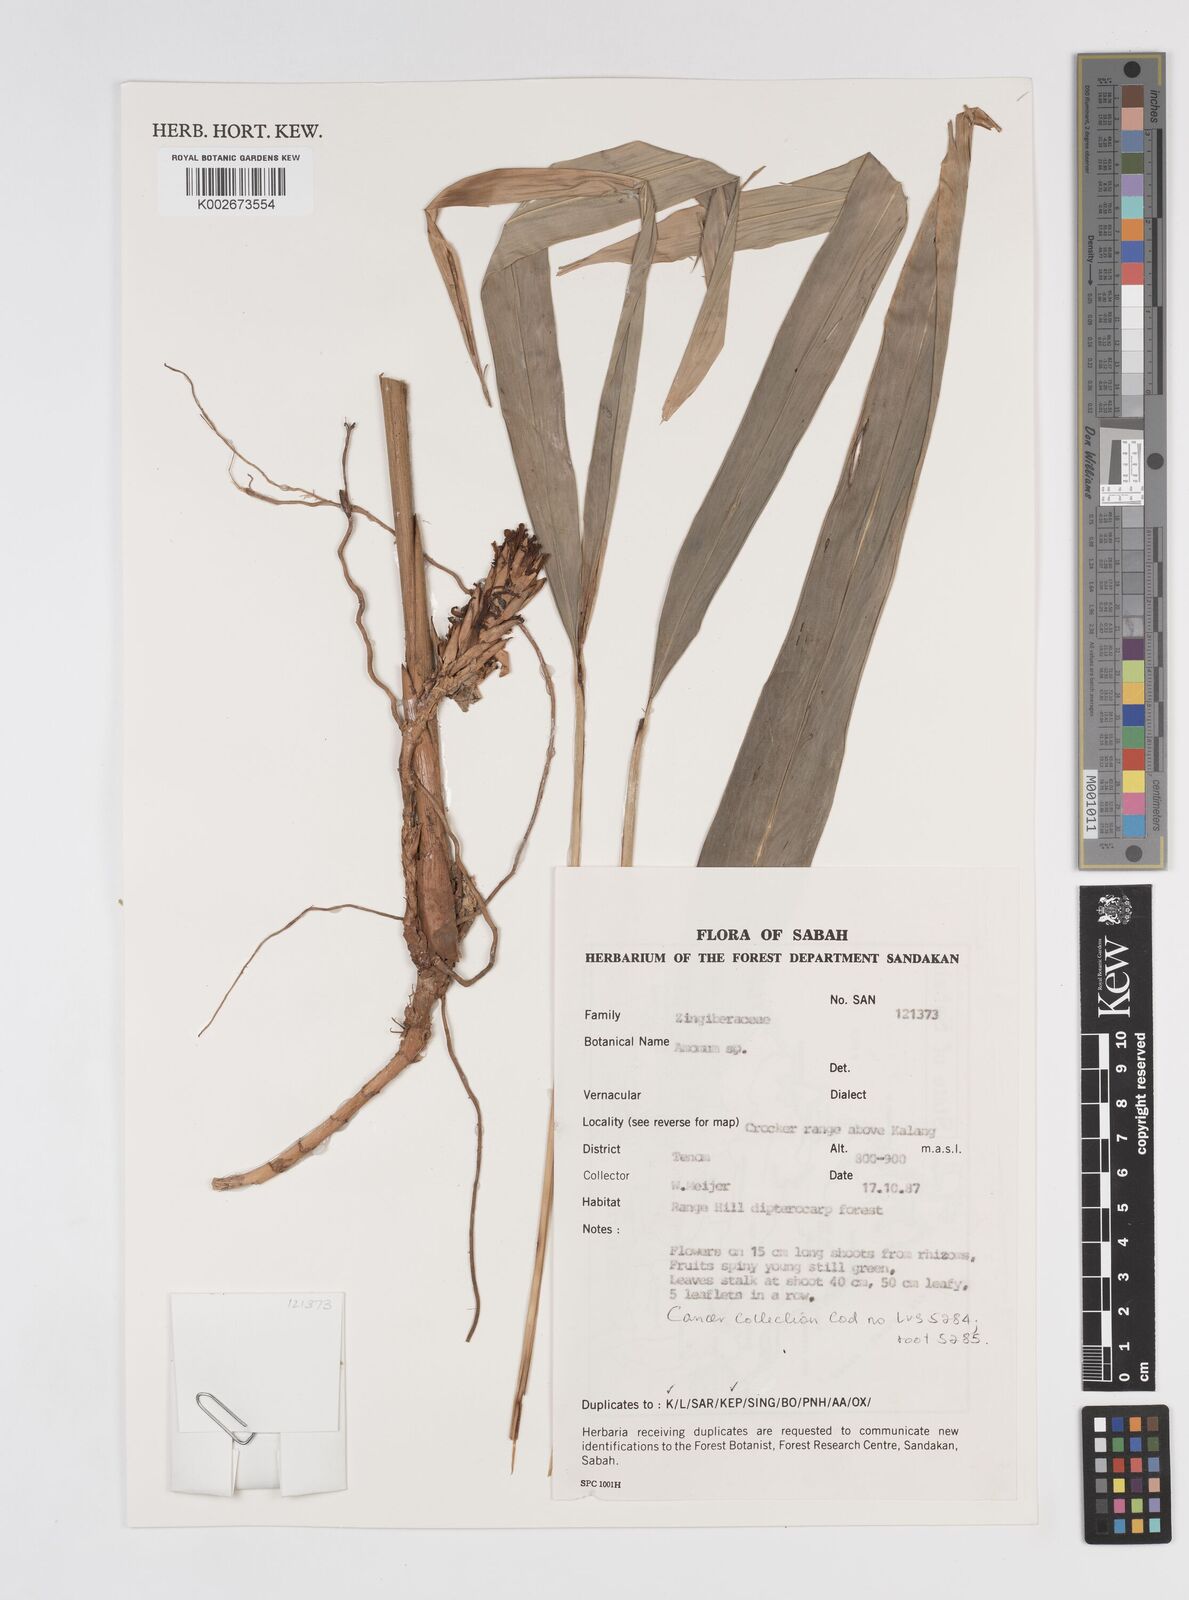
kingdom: Plantae
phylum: Tracheophyta
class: Liliopsida
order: Zingiberales
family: Zingiberaceae
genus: Amomum
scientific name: Amomum
